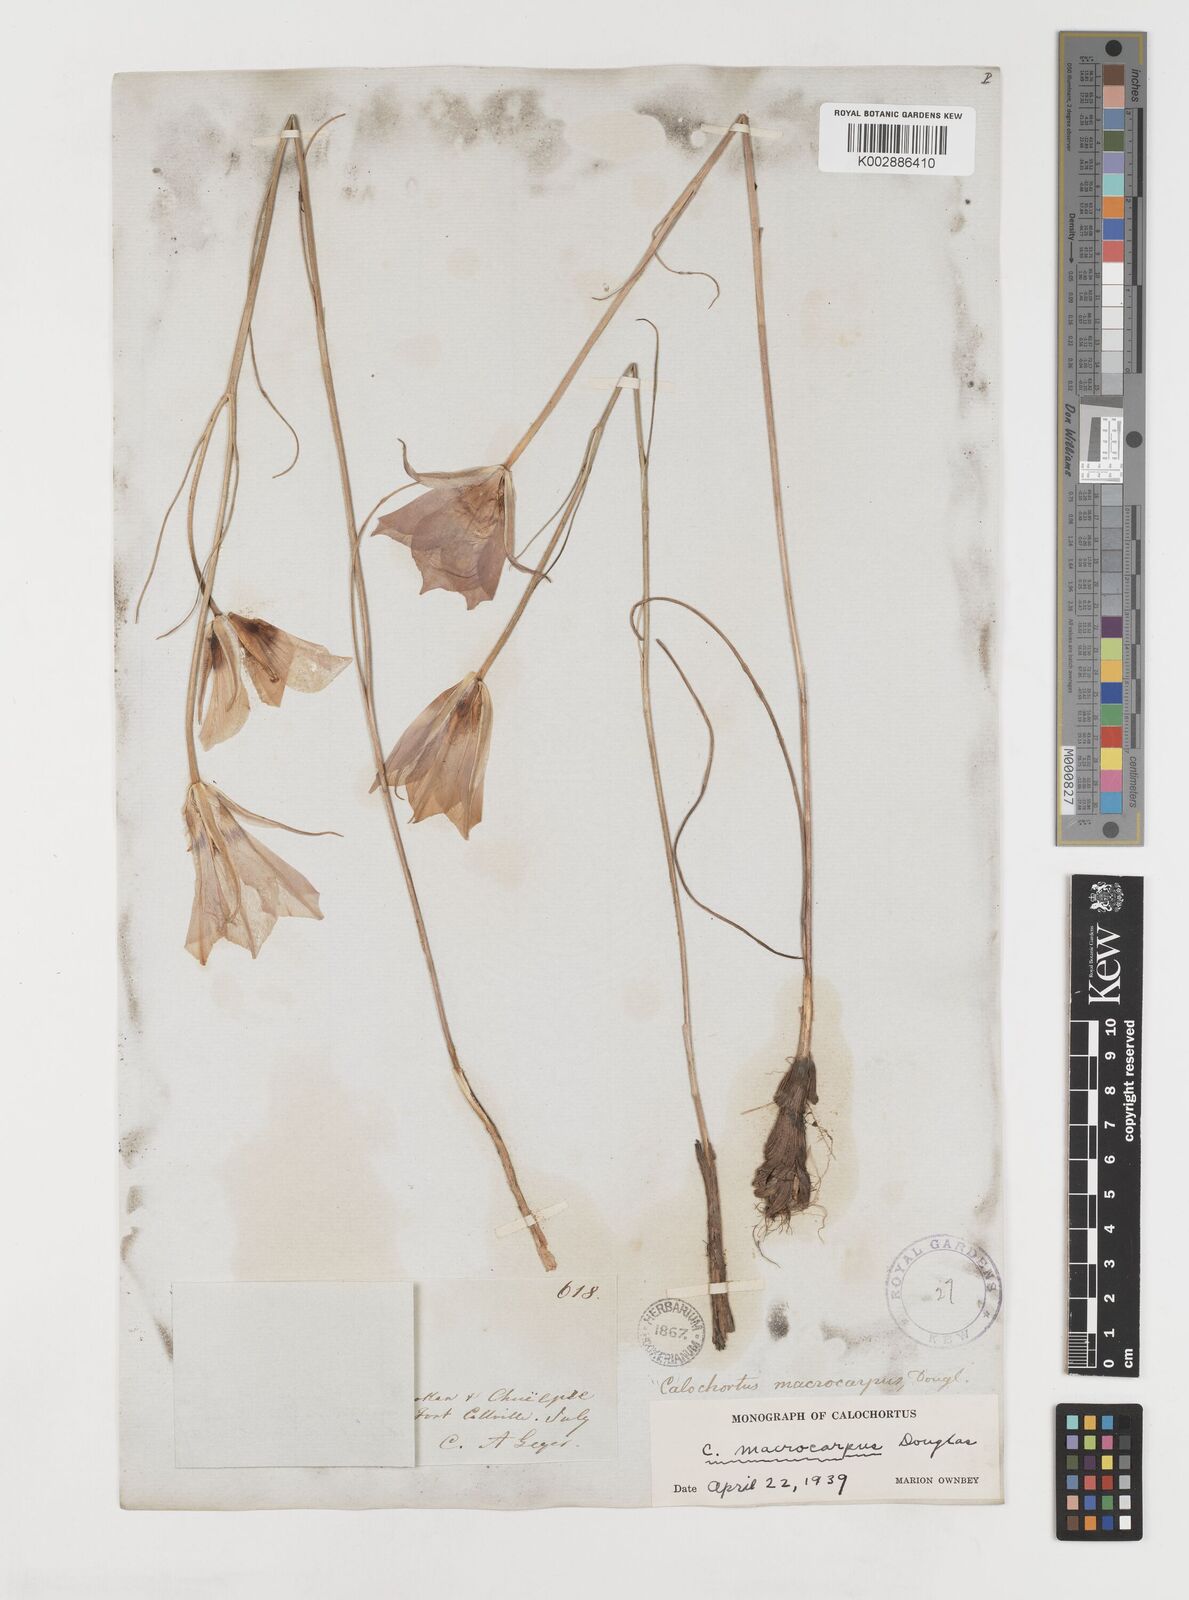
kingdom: Plantae
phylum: Tracheophyta
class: Liliopsida
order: Liliales
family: Liliaceae
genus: Calochortus
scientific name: Calochortus macrocarpus
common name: Green-band mariposa lily
